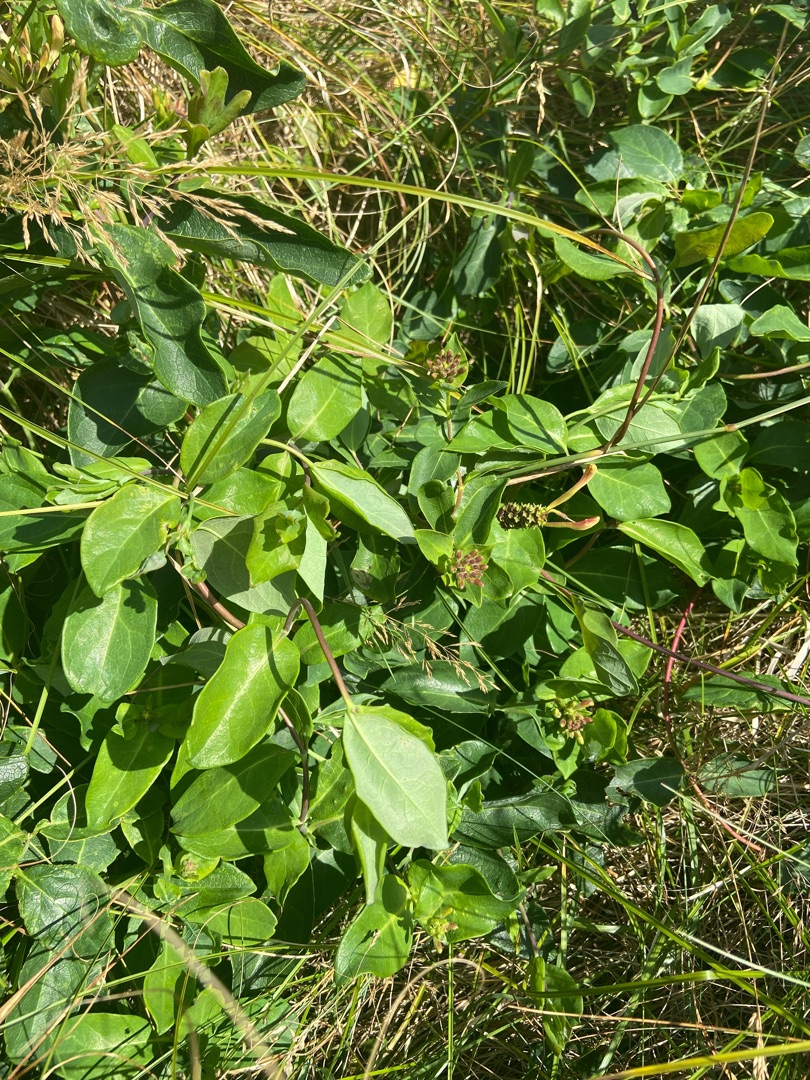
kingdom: Plantae
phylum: Tracheophyta
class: Magnoliopsida
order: Dipsacales
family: Caprifoliaceae
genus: Lonicera
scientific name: Lonicera periclymenum
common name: Almindelig gedeblad
